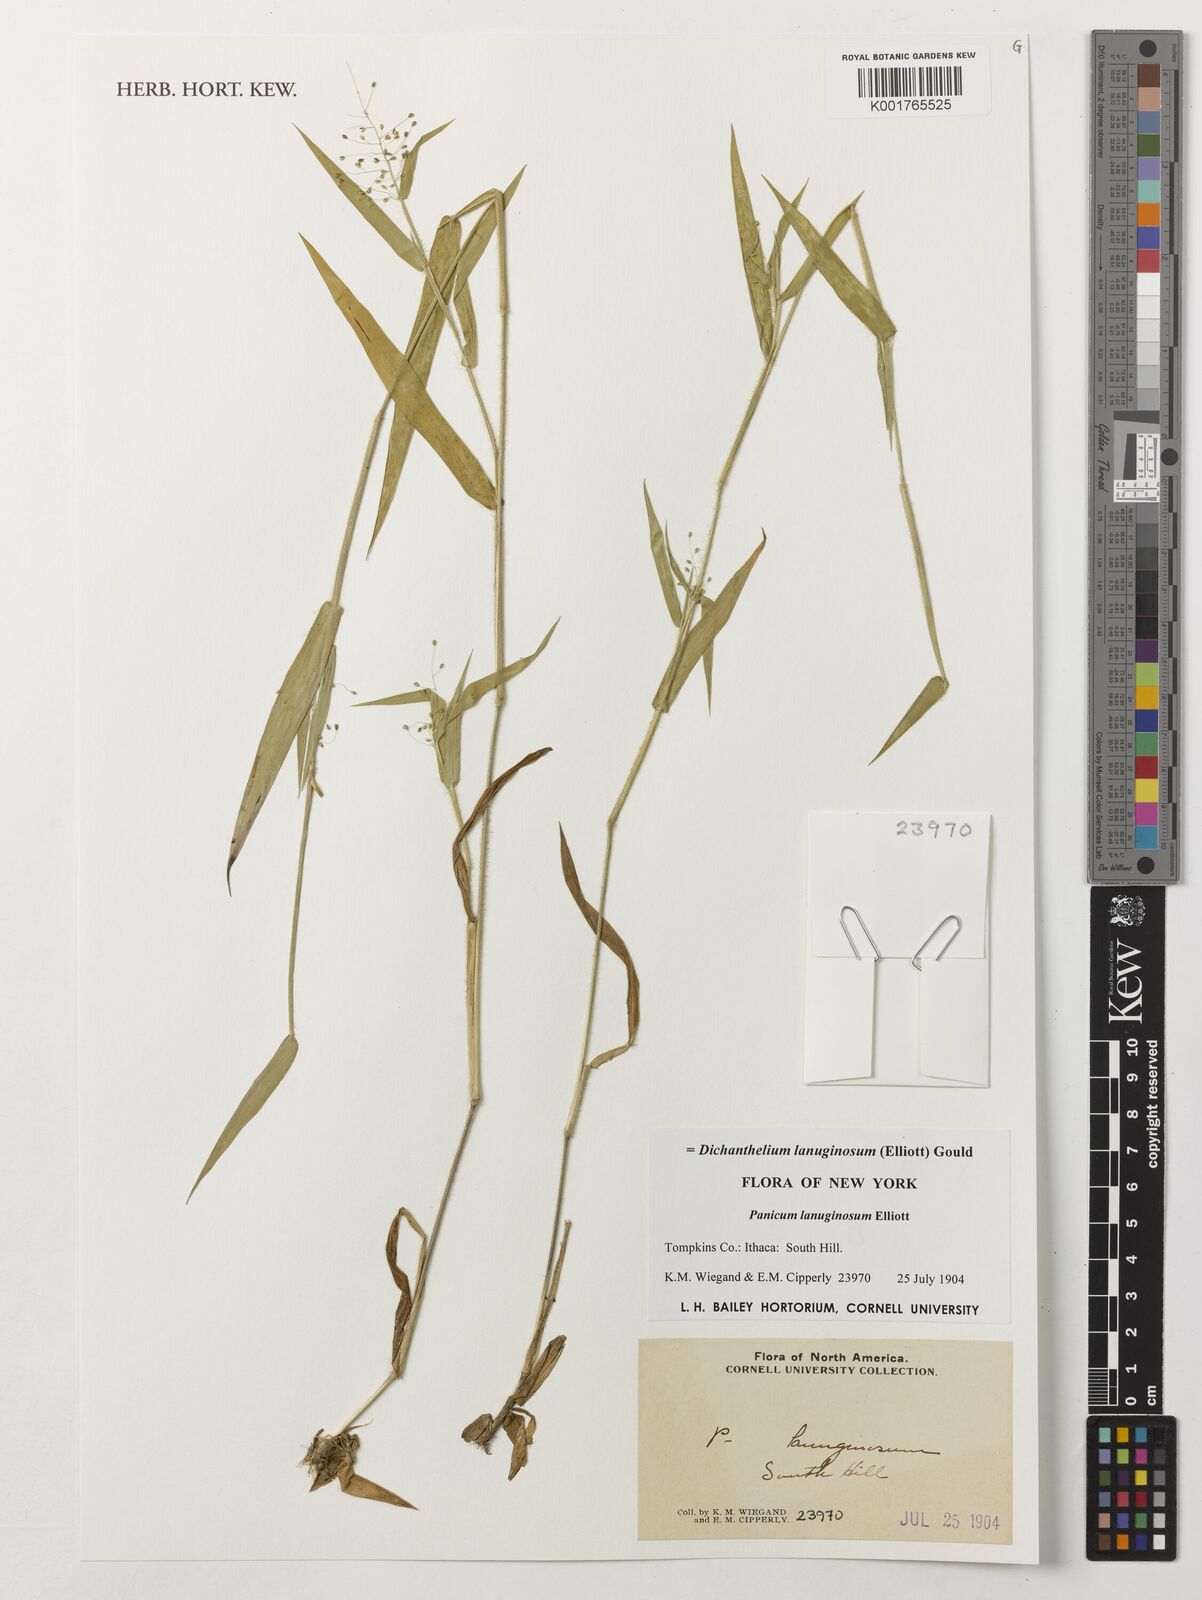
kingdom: Plantae
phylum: Tracheophyta
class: Liliopsida
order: Poales
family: Poaceae
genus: Dichanthelium
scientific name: Dichanthelium lanuginosum
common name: Woolly panicgrass
